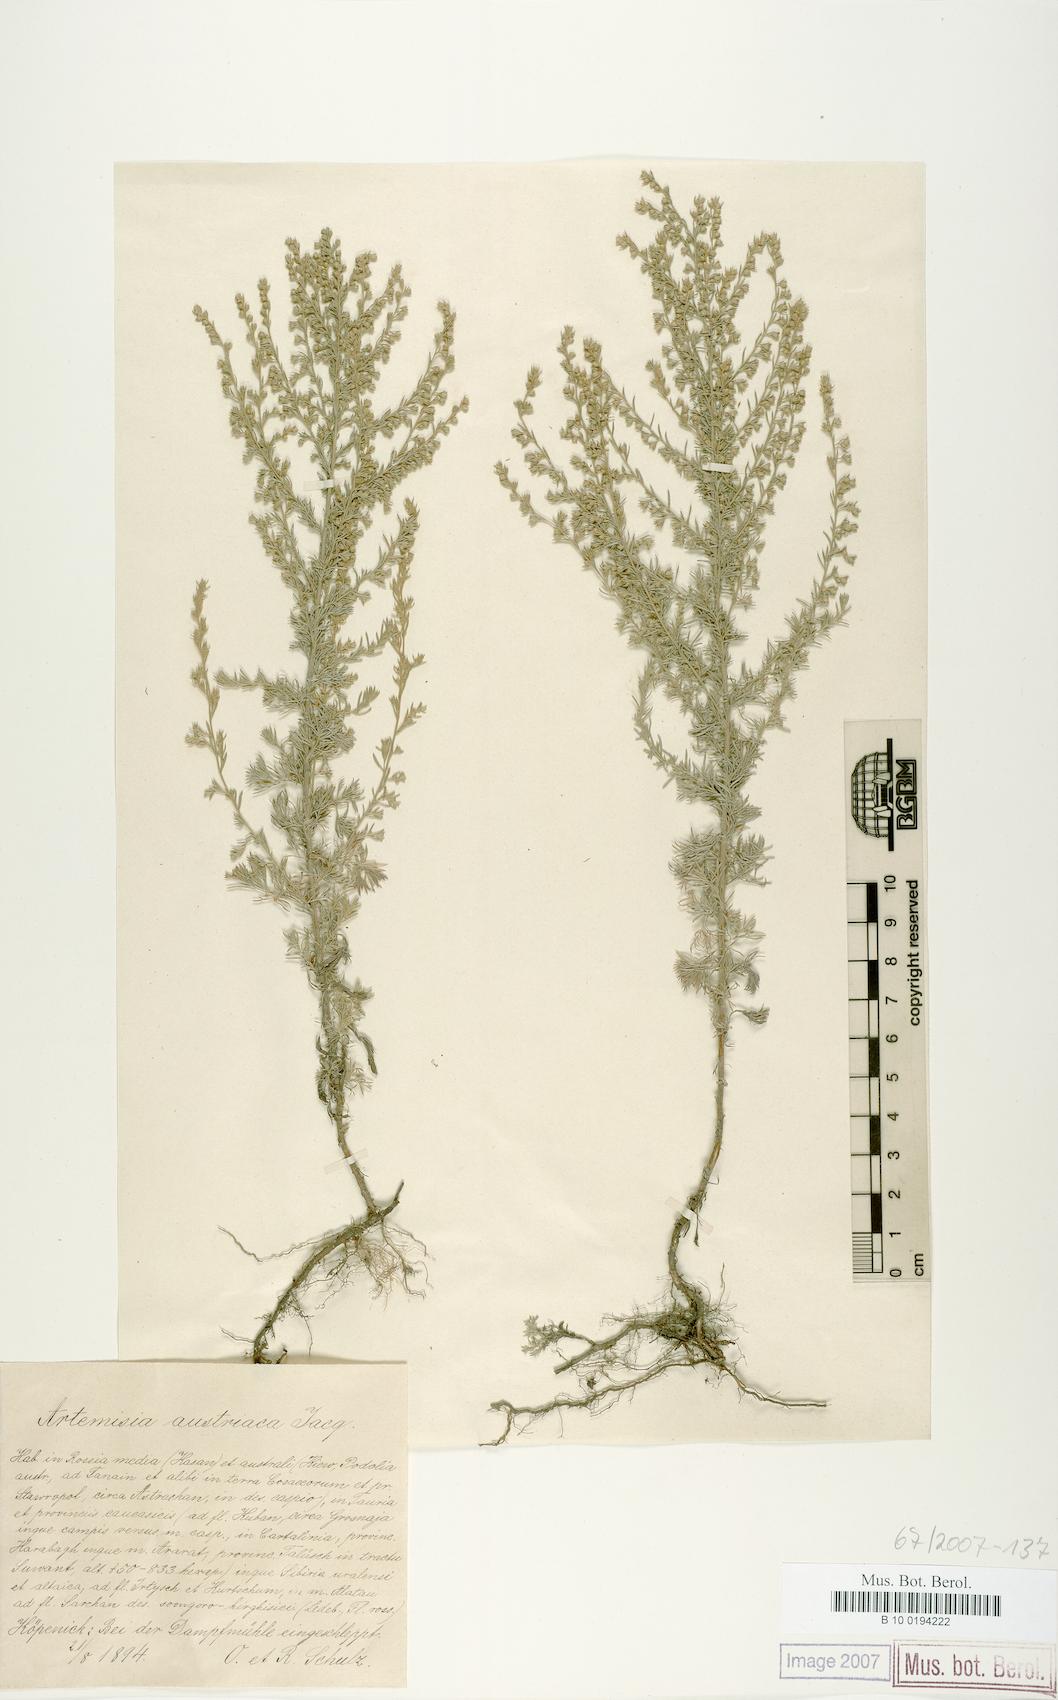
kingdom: Plantae
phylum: Tracheophyta
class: Magnoliopsida
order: Asterales
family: Asteraceae
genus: Artemisia
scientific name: Artemisia austriaca
